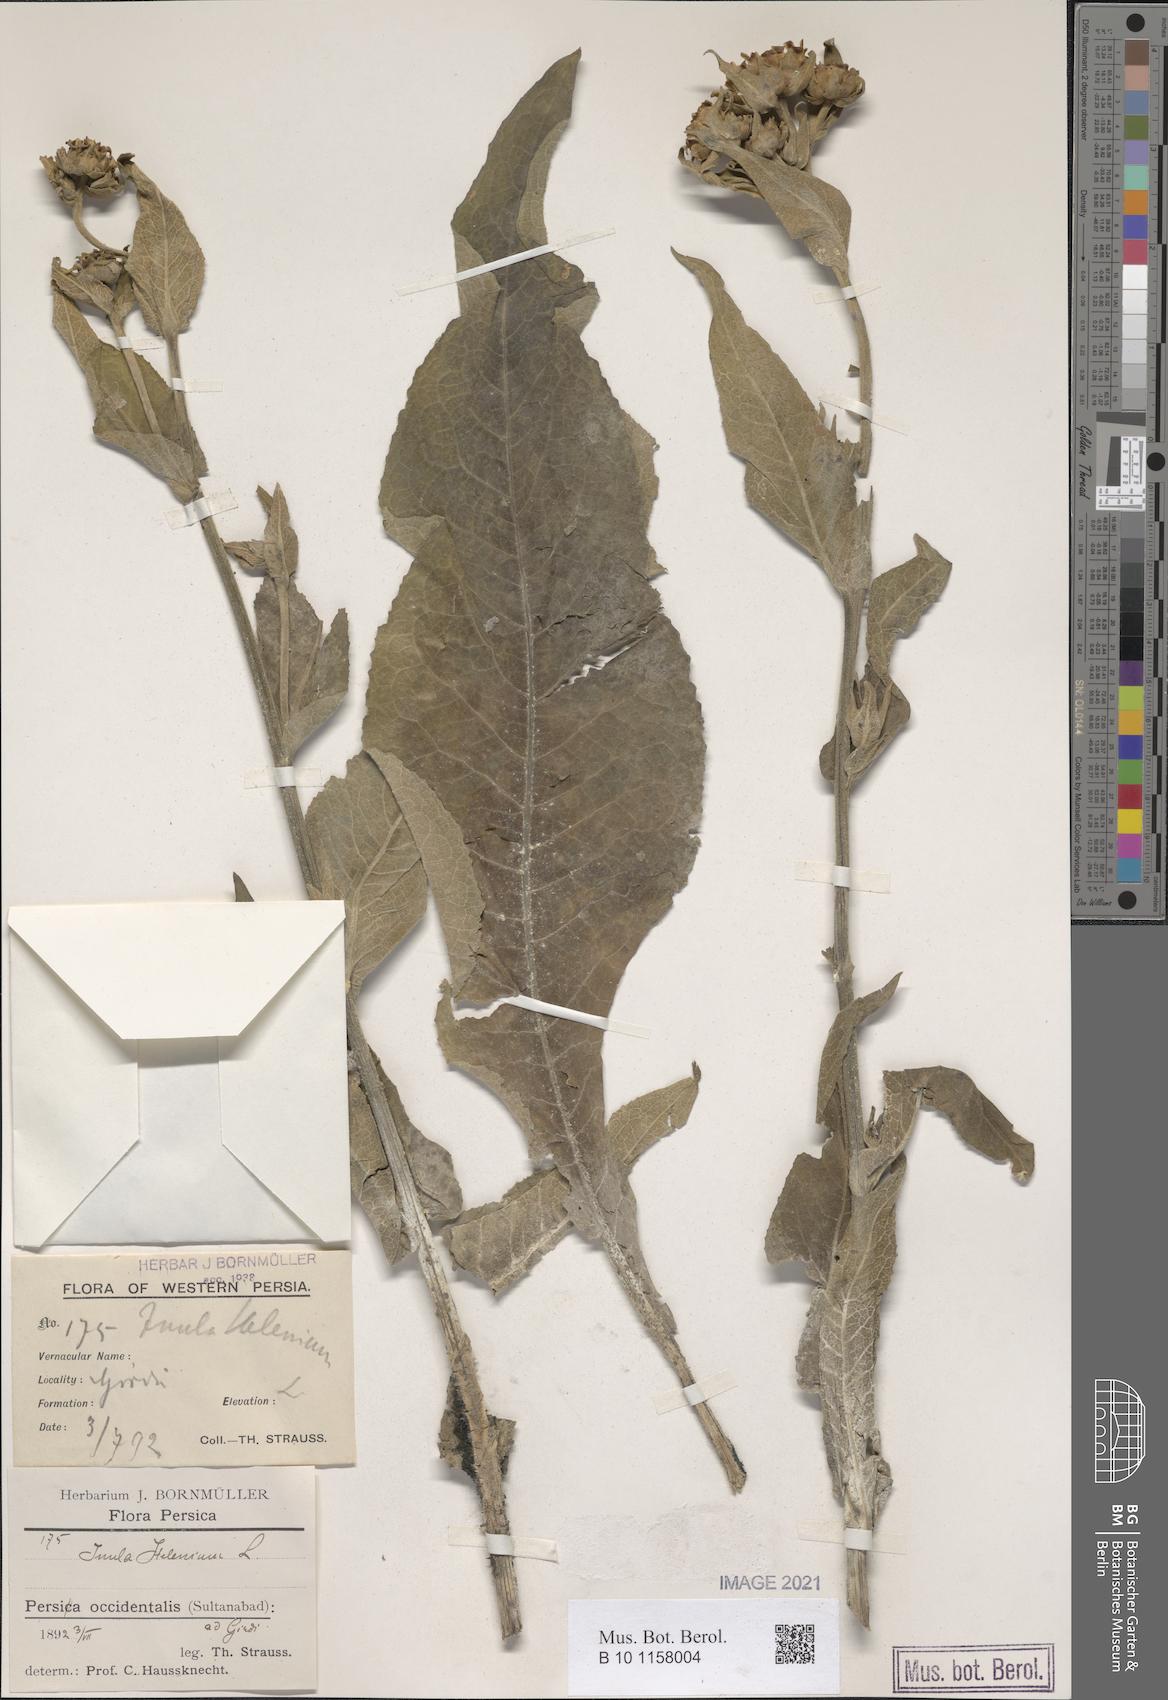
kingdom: Plantae
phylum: Tracheophyta
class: Magnoliopsida
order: Asterales
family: Asteraceae
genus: Inula
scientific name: Inula helenium
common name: Elecampane
